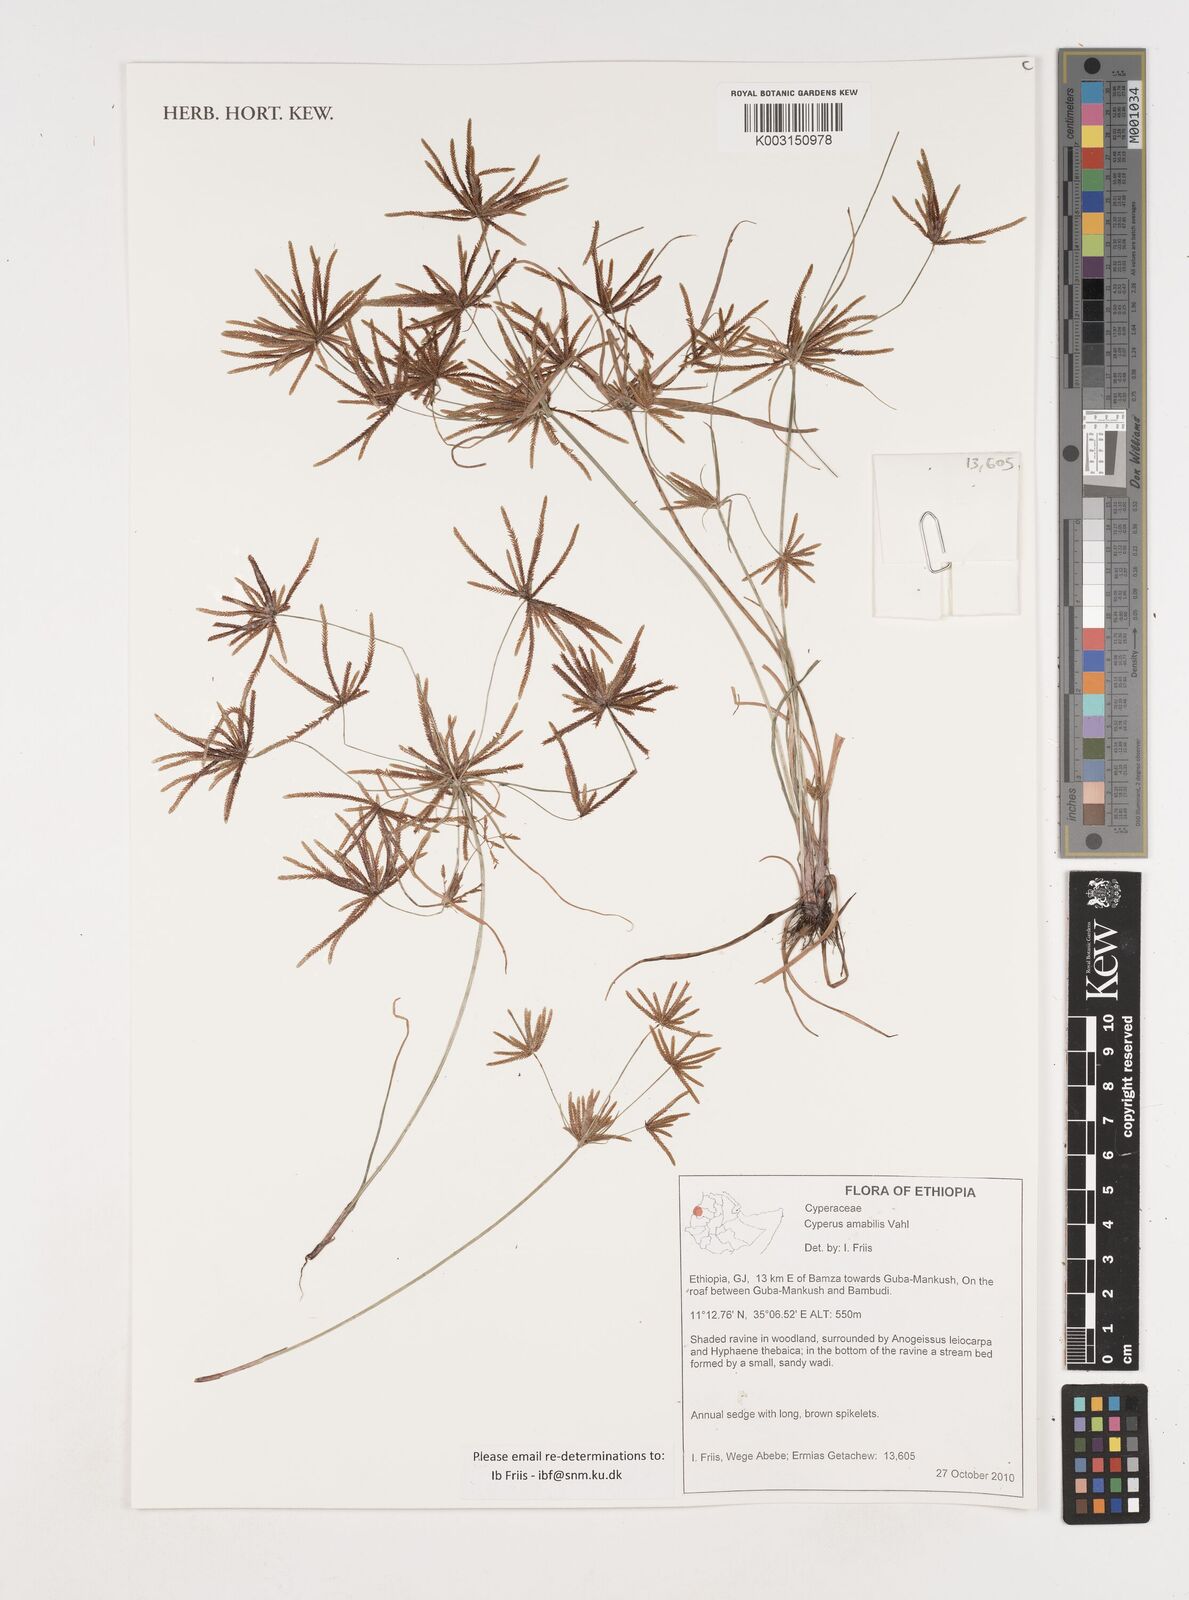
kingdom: Plantae
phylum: Tracheophyta
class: Liliopsida
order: Poales
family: Cyperaceae
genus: Cyperus
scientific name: Cyperus amabilis
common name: Foothill flat sedge
